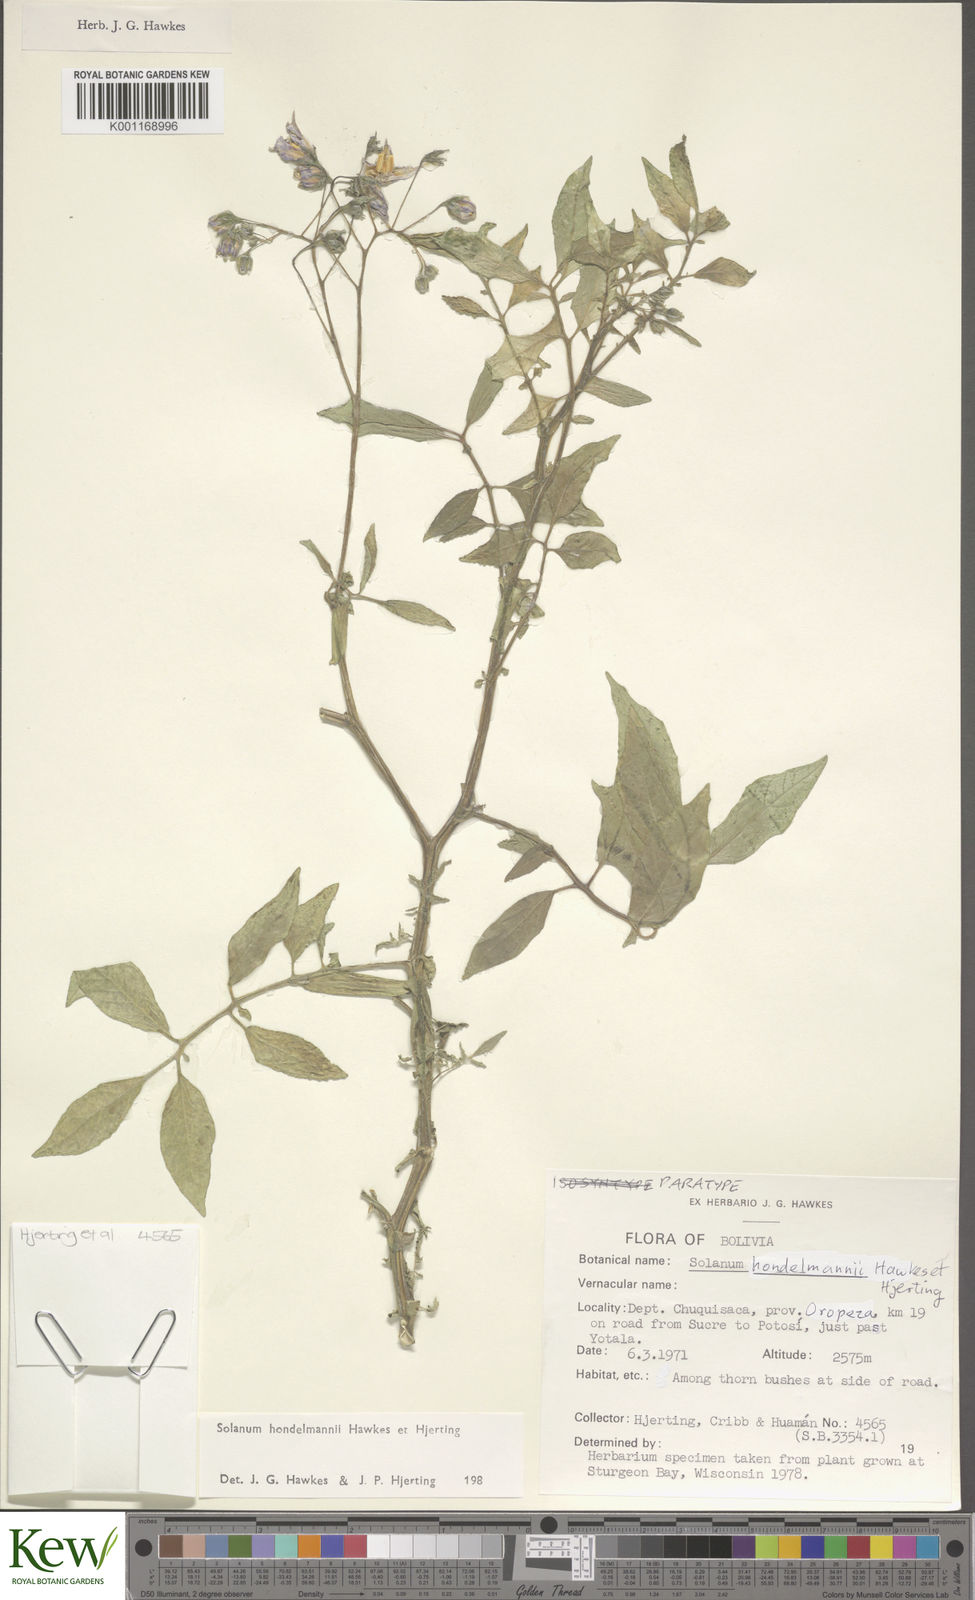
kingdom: Plantae
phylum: Tracheophyta
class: Magnoliopsida
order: Solanales
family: Solanaceae
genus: Solanum
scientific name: Solanum brevicaule
